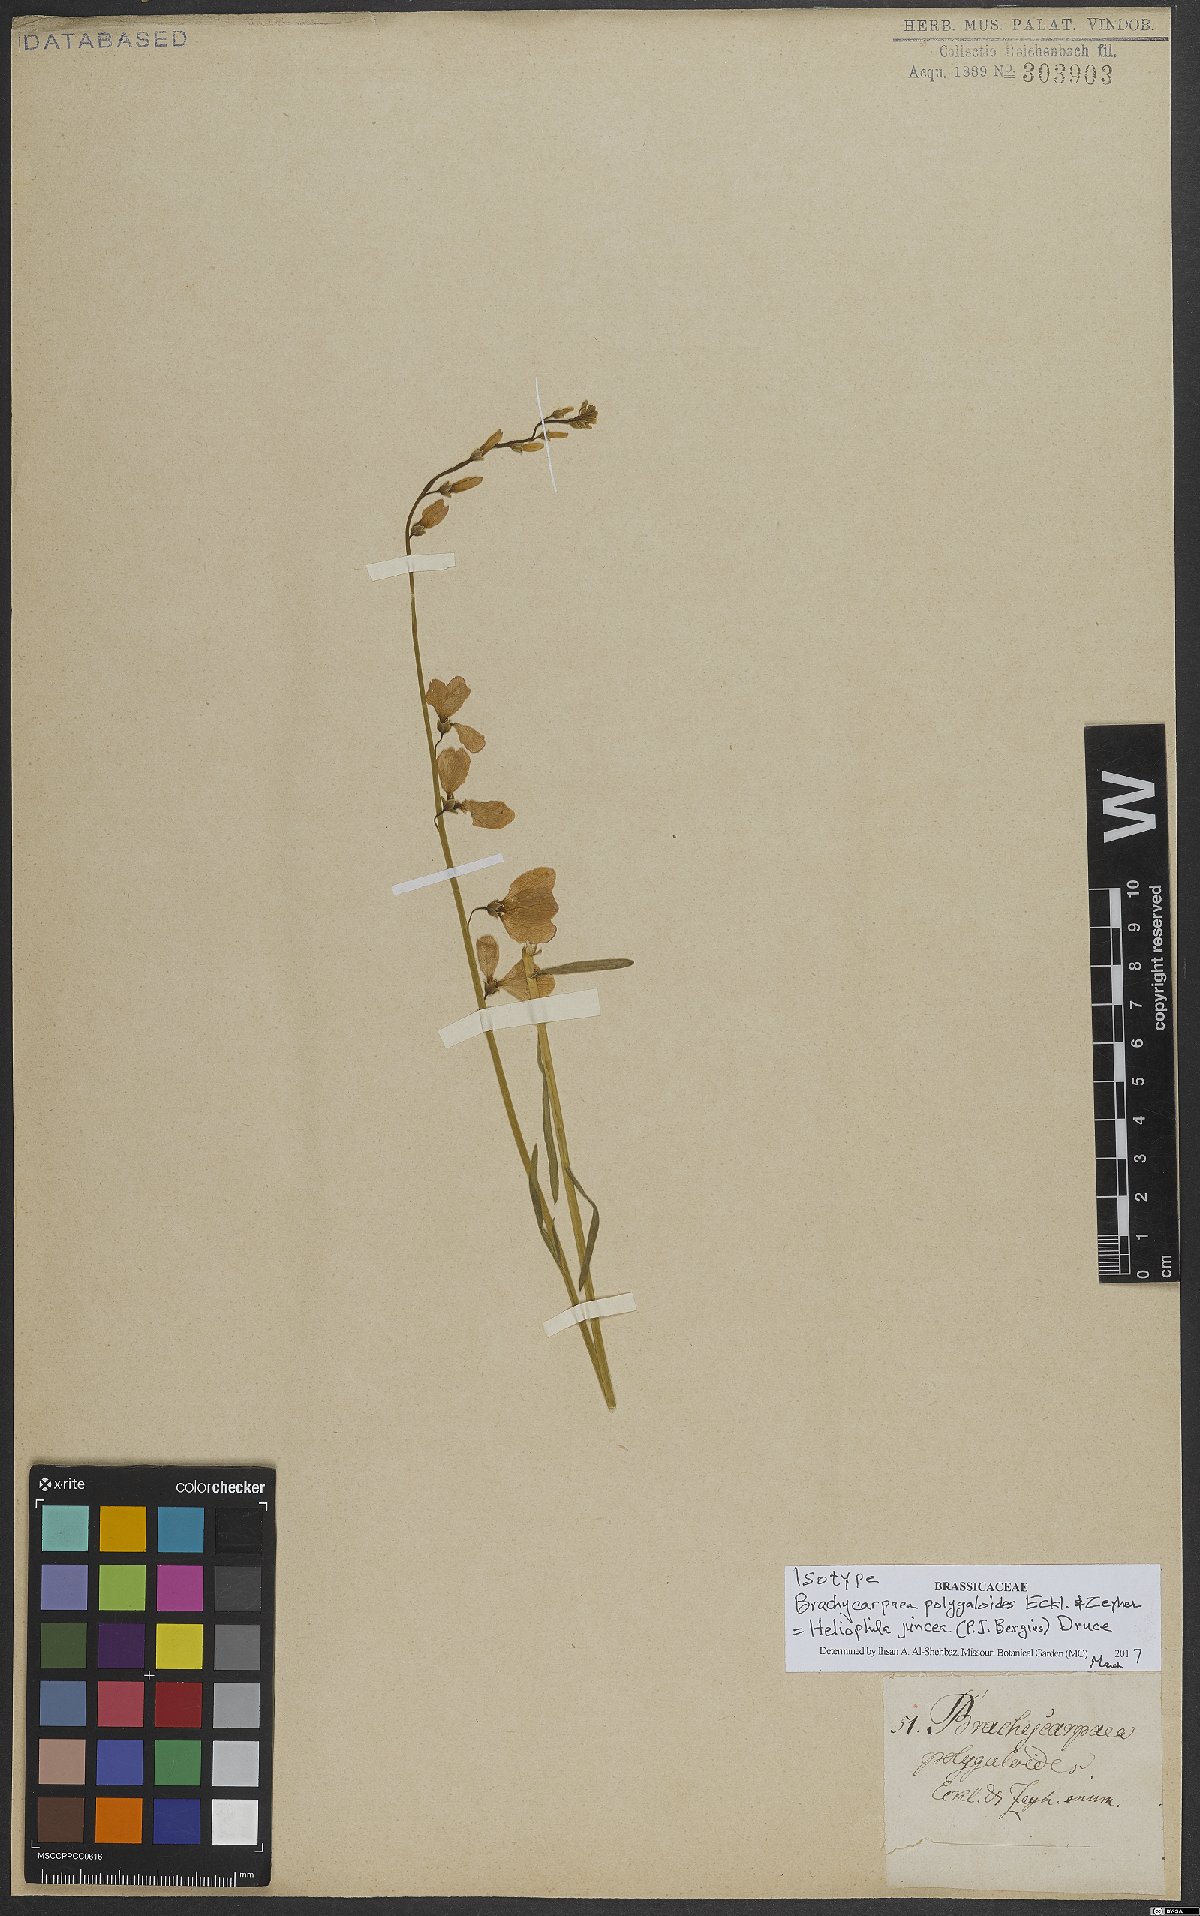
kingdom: Plantae
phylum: Tracheophyta
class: Magnoliopsida
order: Brassicales
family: Brassicaceae
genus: Heliophila
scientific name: Heliophila juncea
